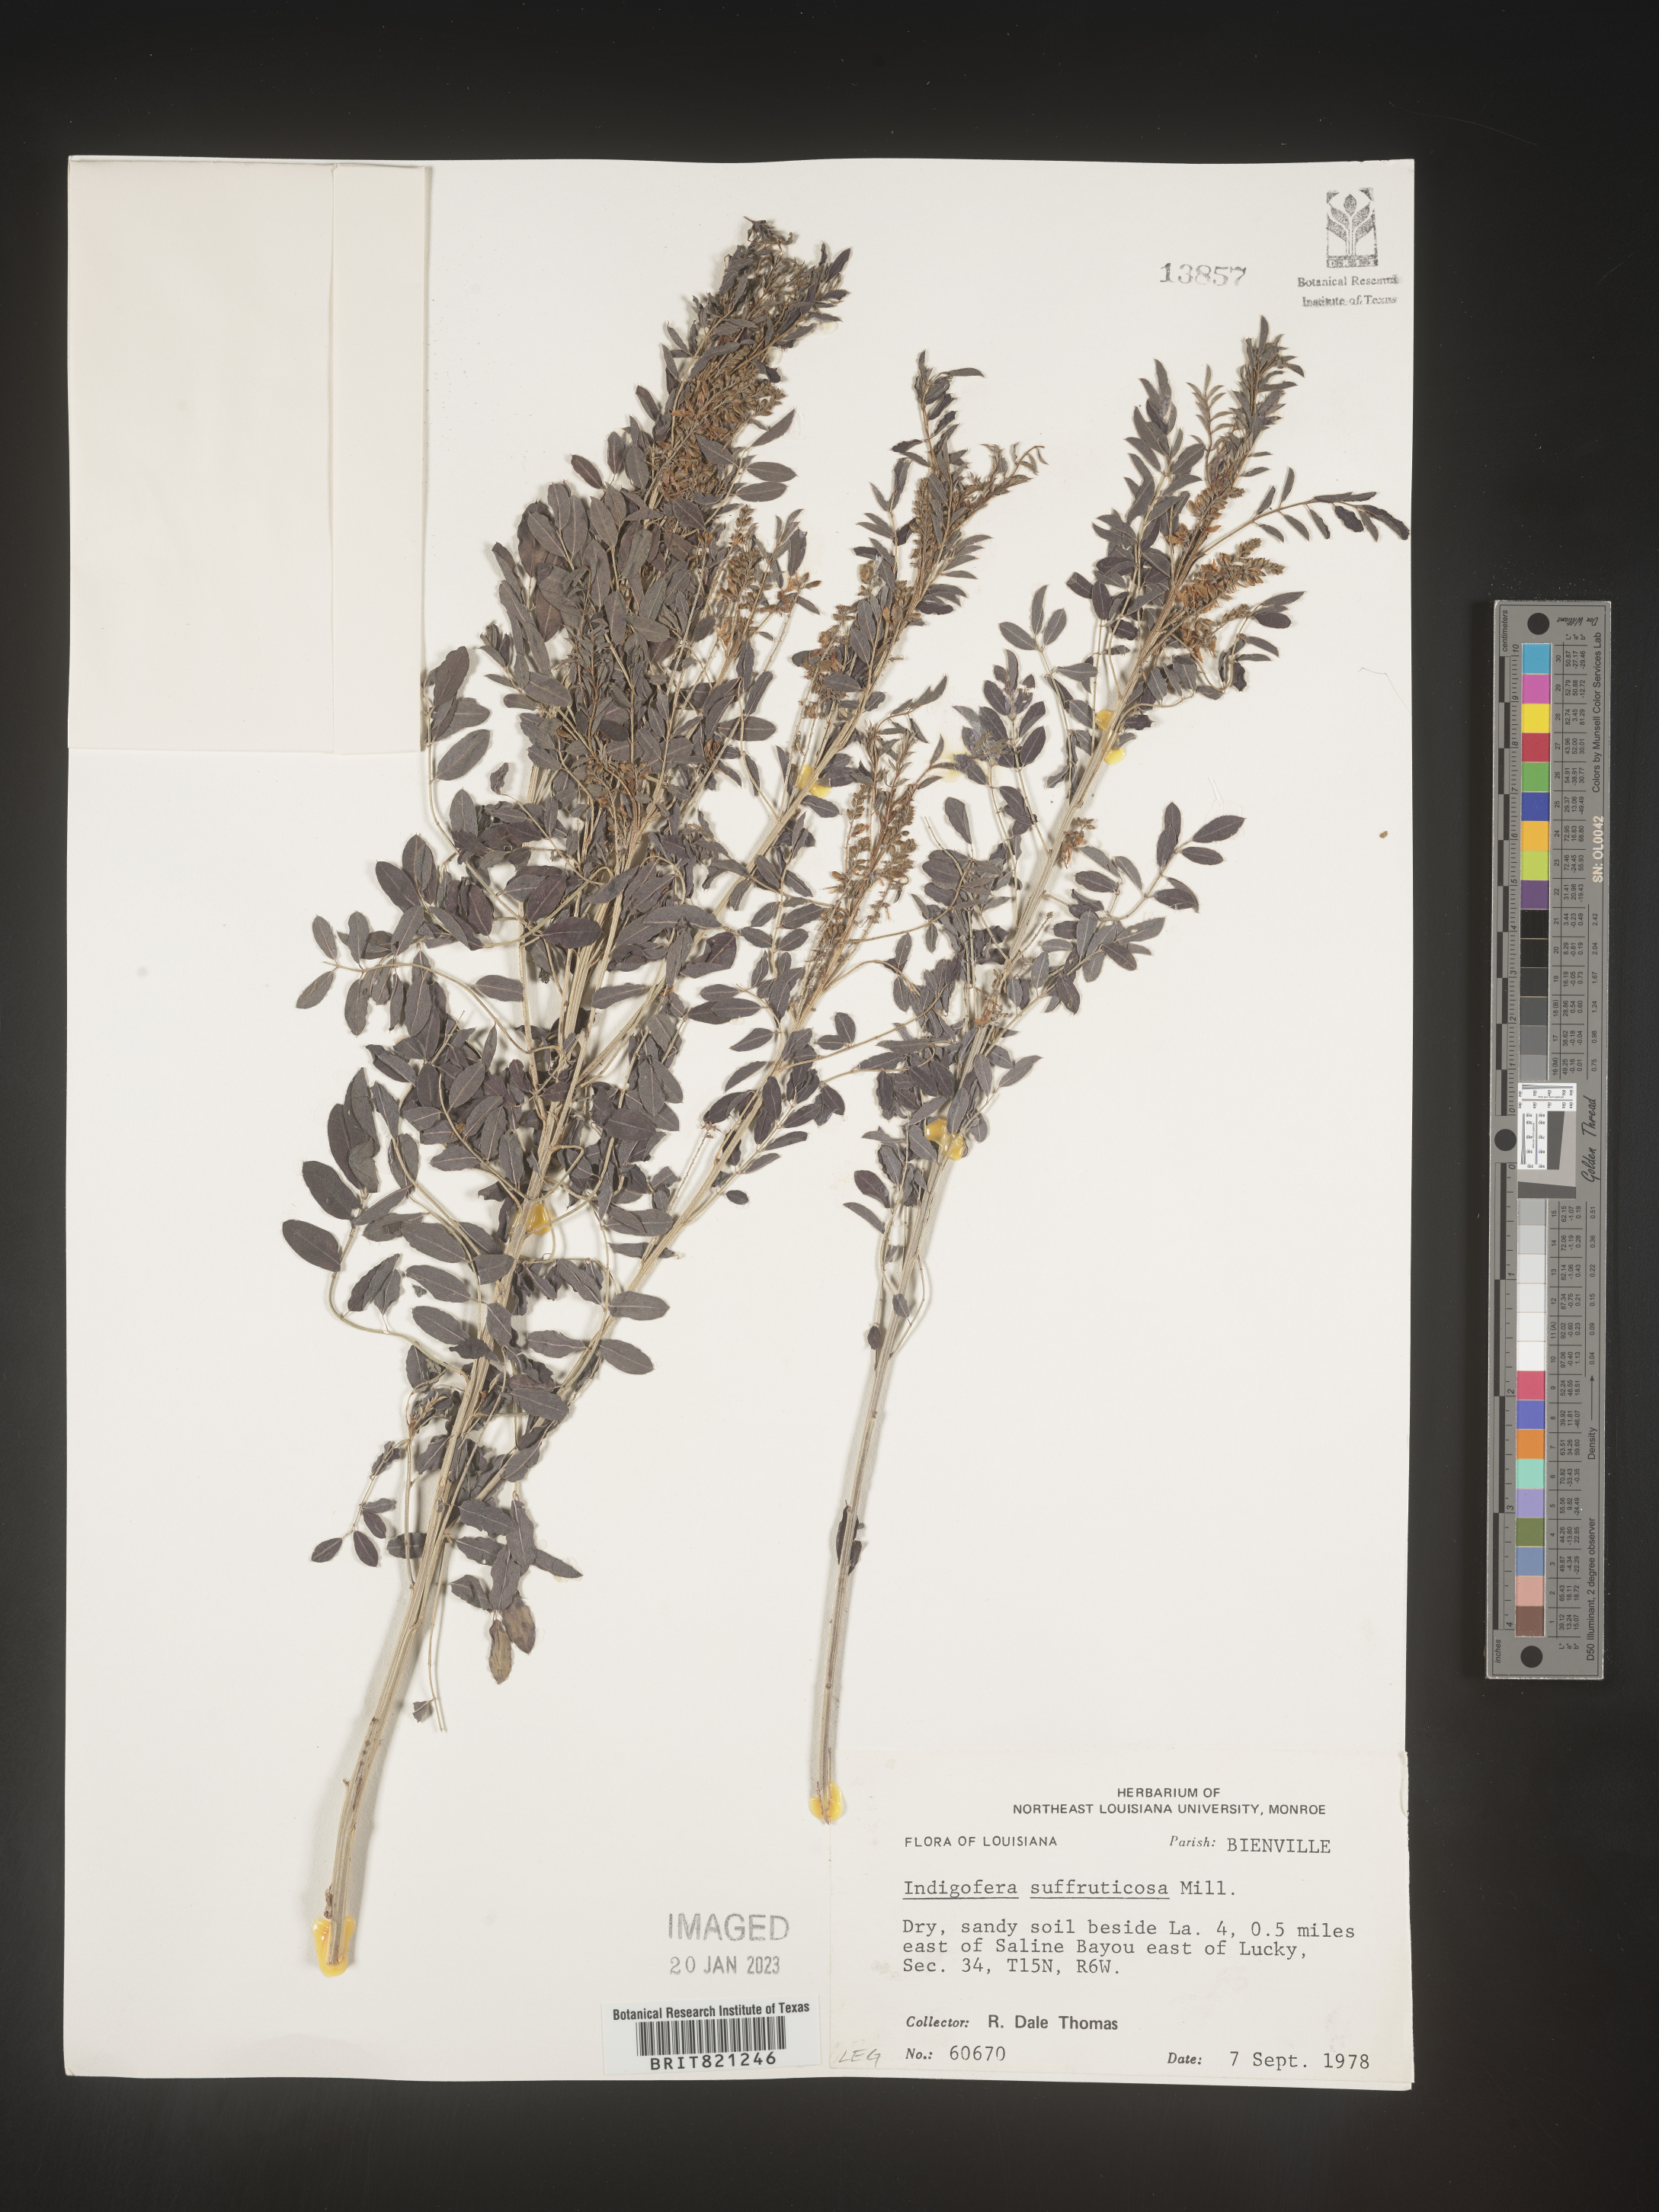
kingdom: Plantae
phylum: Tracheophyta
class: Magnoliopsida
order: Fabales
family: Fabaceae
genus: Indigofera
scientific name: Indigofera
